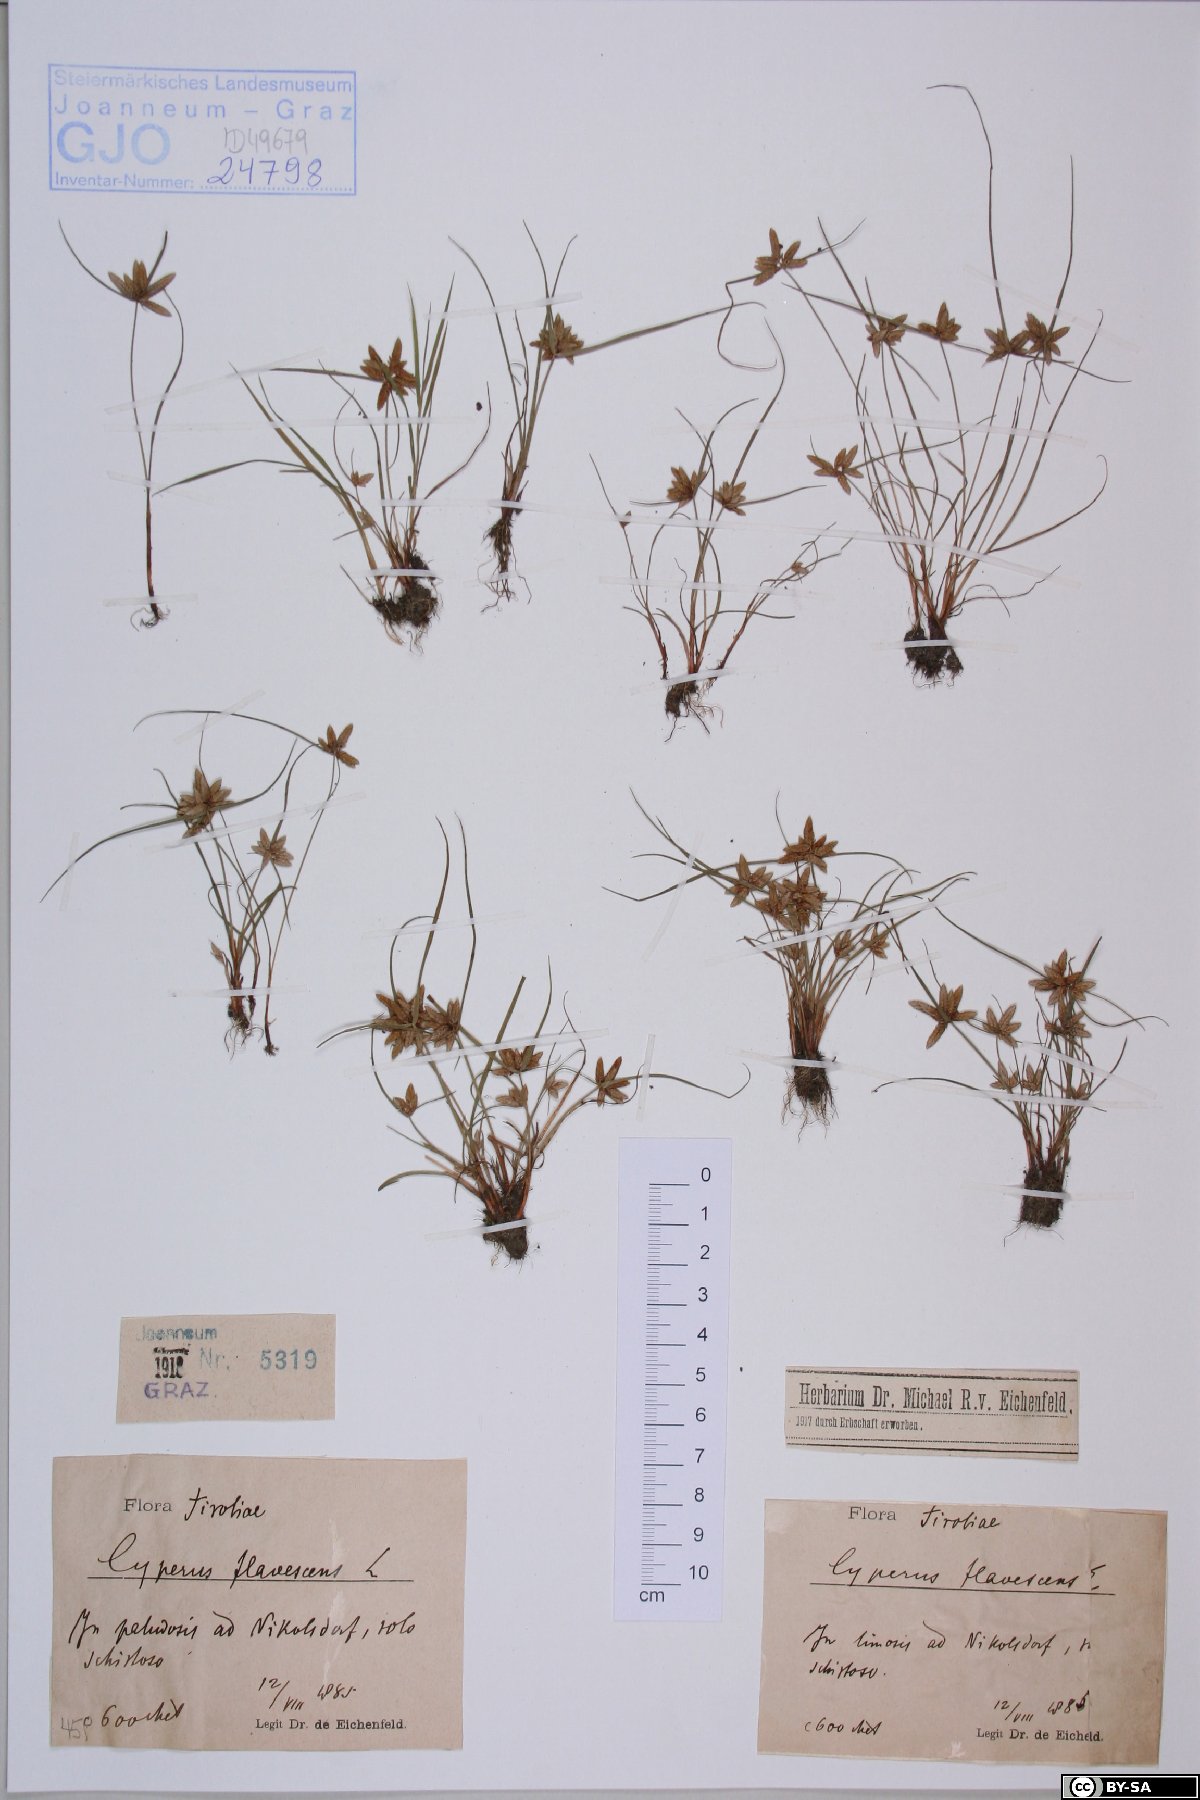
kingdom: Plantae
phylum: Tracheophyta
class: Liliopsida
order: Poales
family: Cyperaceae
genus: Cyperus
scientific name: Cyperus flavescens
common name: Yellow galingale
